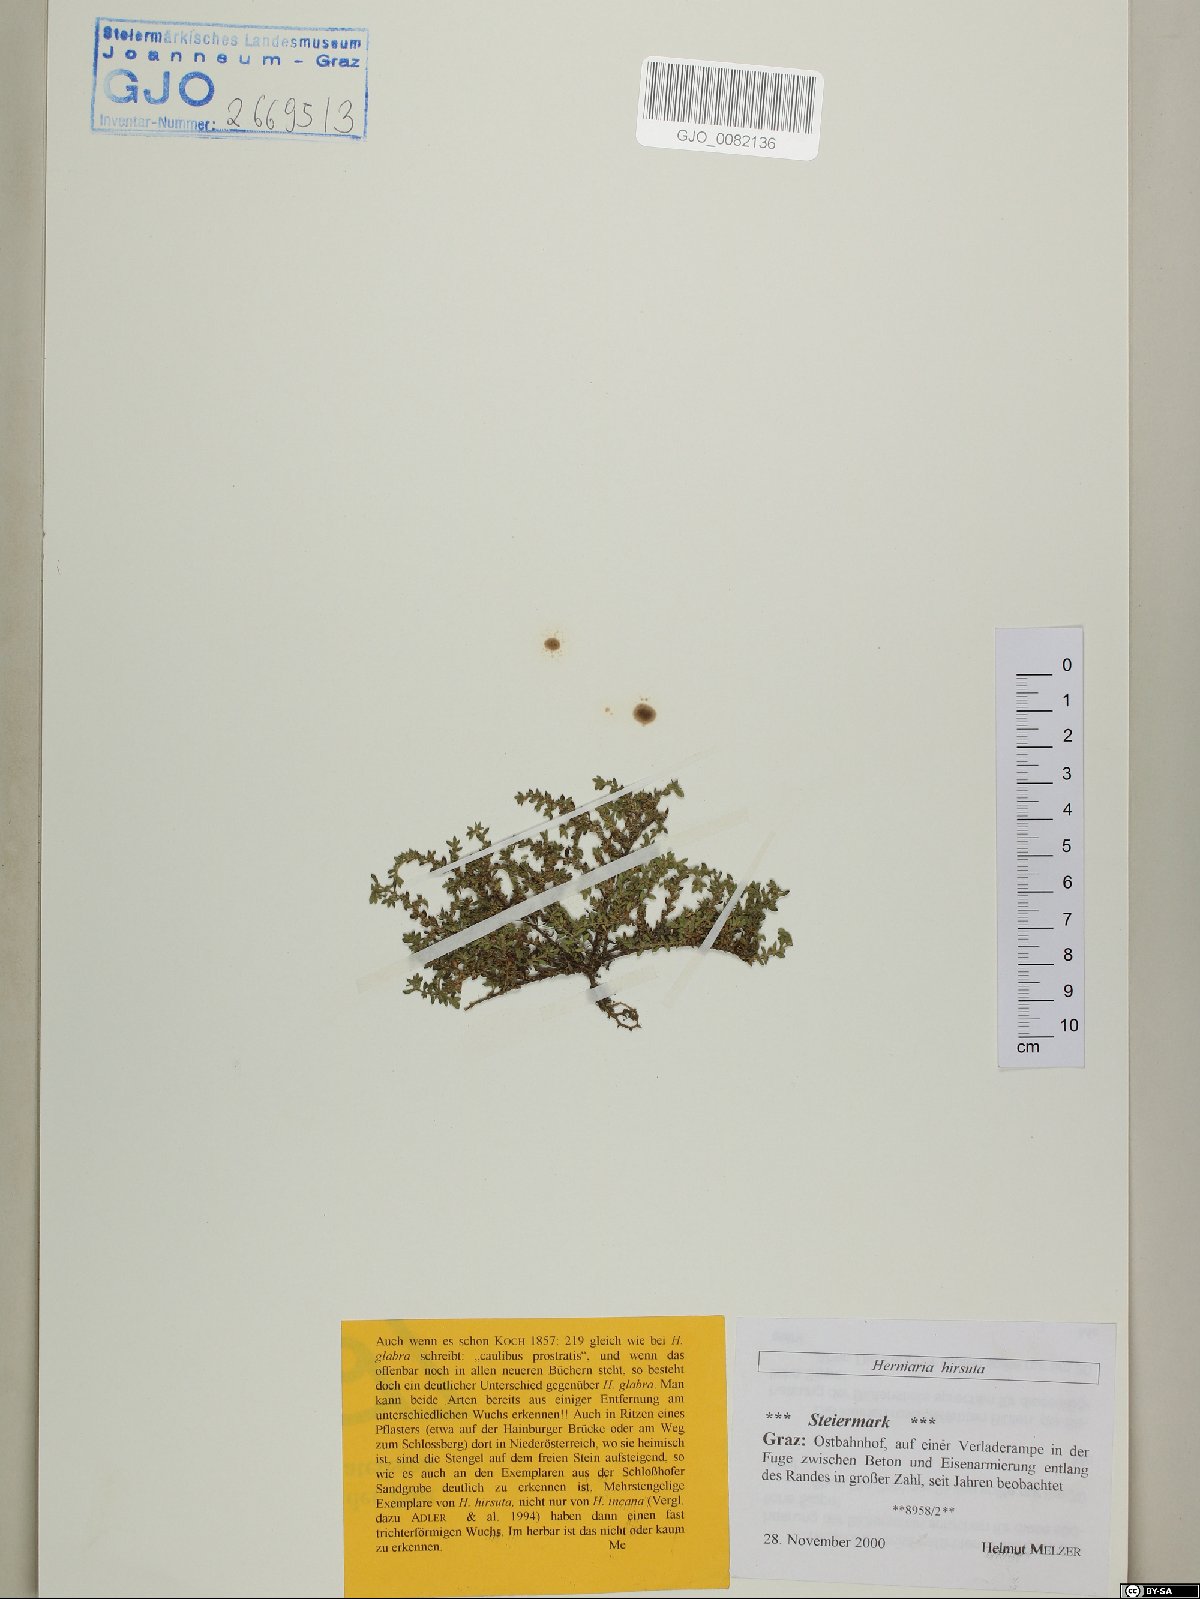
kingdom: Plantae
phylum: Tracheophyta
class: Magnoliopsida
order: Caryophyllales
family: Caryophyllaceae
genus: Herniaria
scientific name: Herniaria hirsuta
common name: Hairy rupturewort
